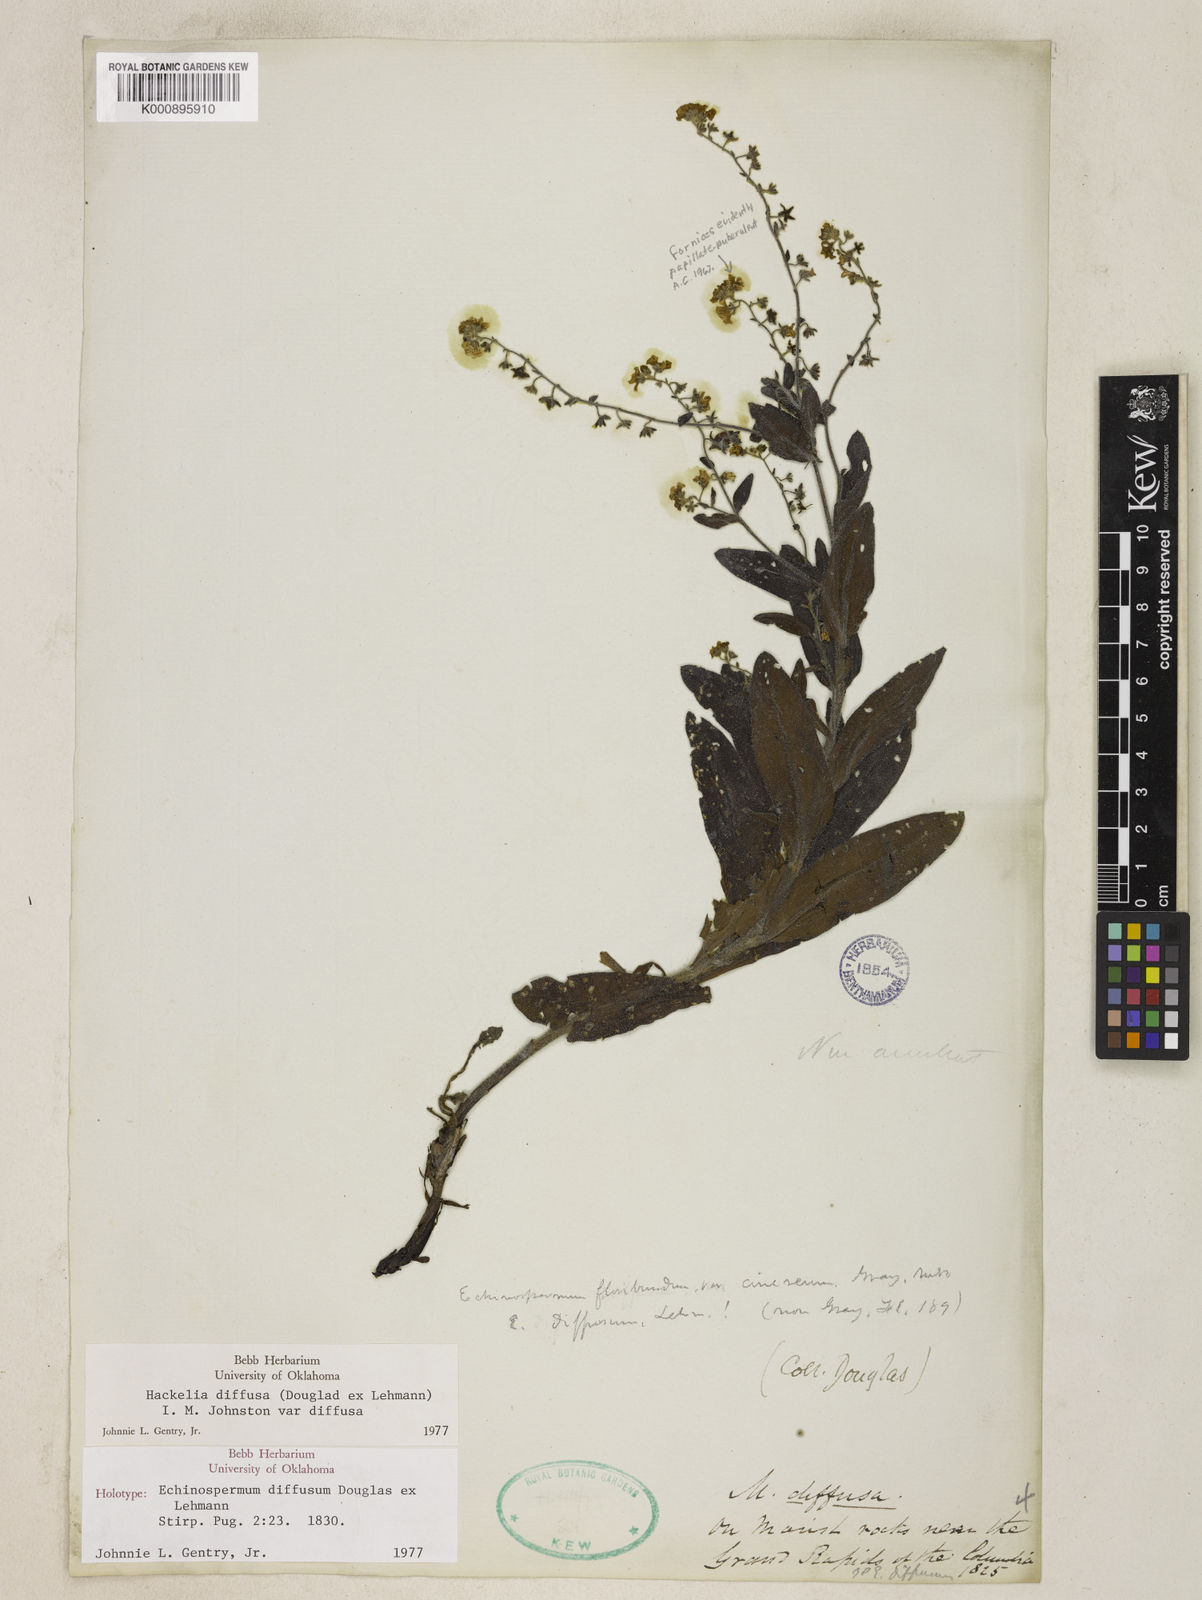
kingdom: Plantae
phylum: Tracheophyta
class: Magnoliopsida
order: Boraginales
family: Boraginaceae
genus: Hackelia
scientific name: Hackelia diffusa
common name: Spreading hackelia
